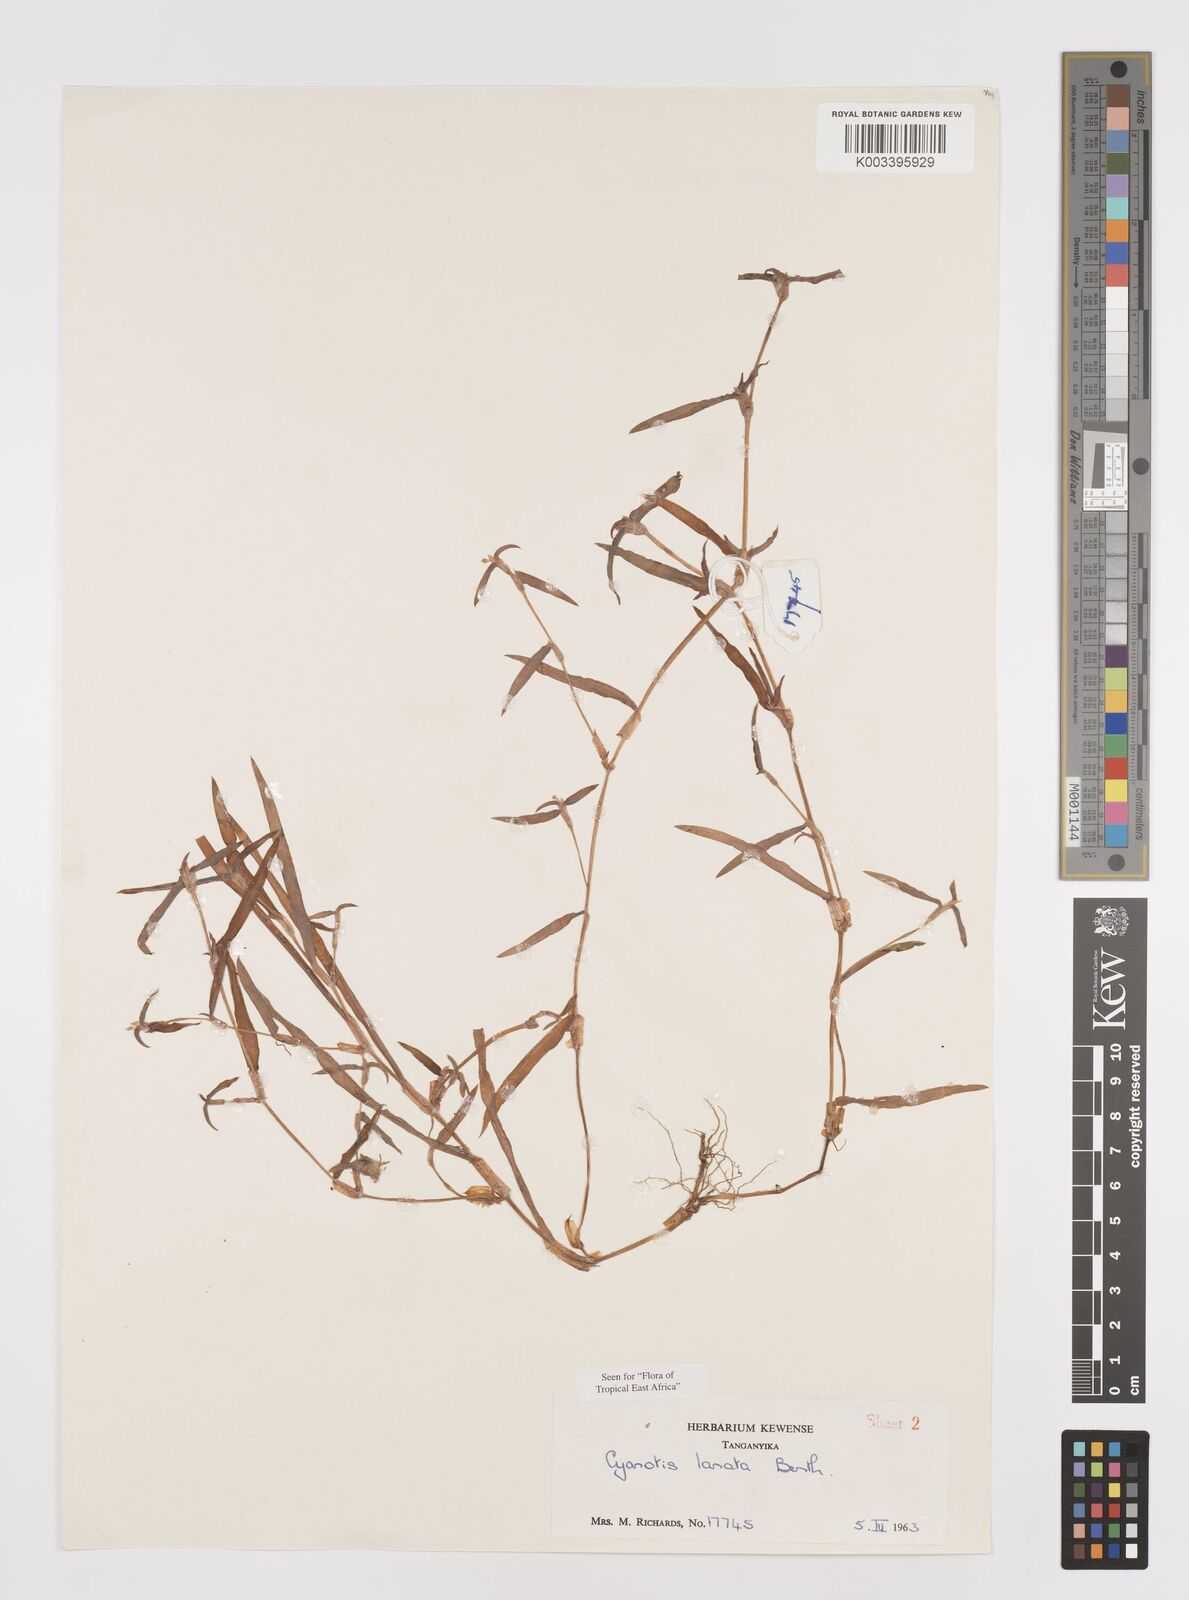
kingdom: Plantae
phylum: Tracheophyta
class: Liliopsida
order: Commelinales
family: Commelinaceae
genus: Cyanotis
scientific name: Cyanotis lanata
